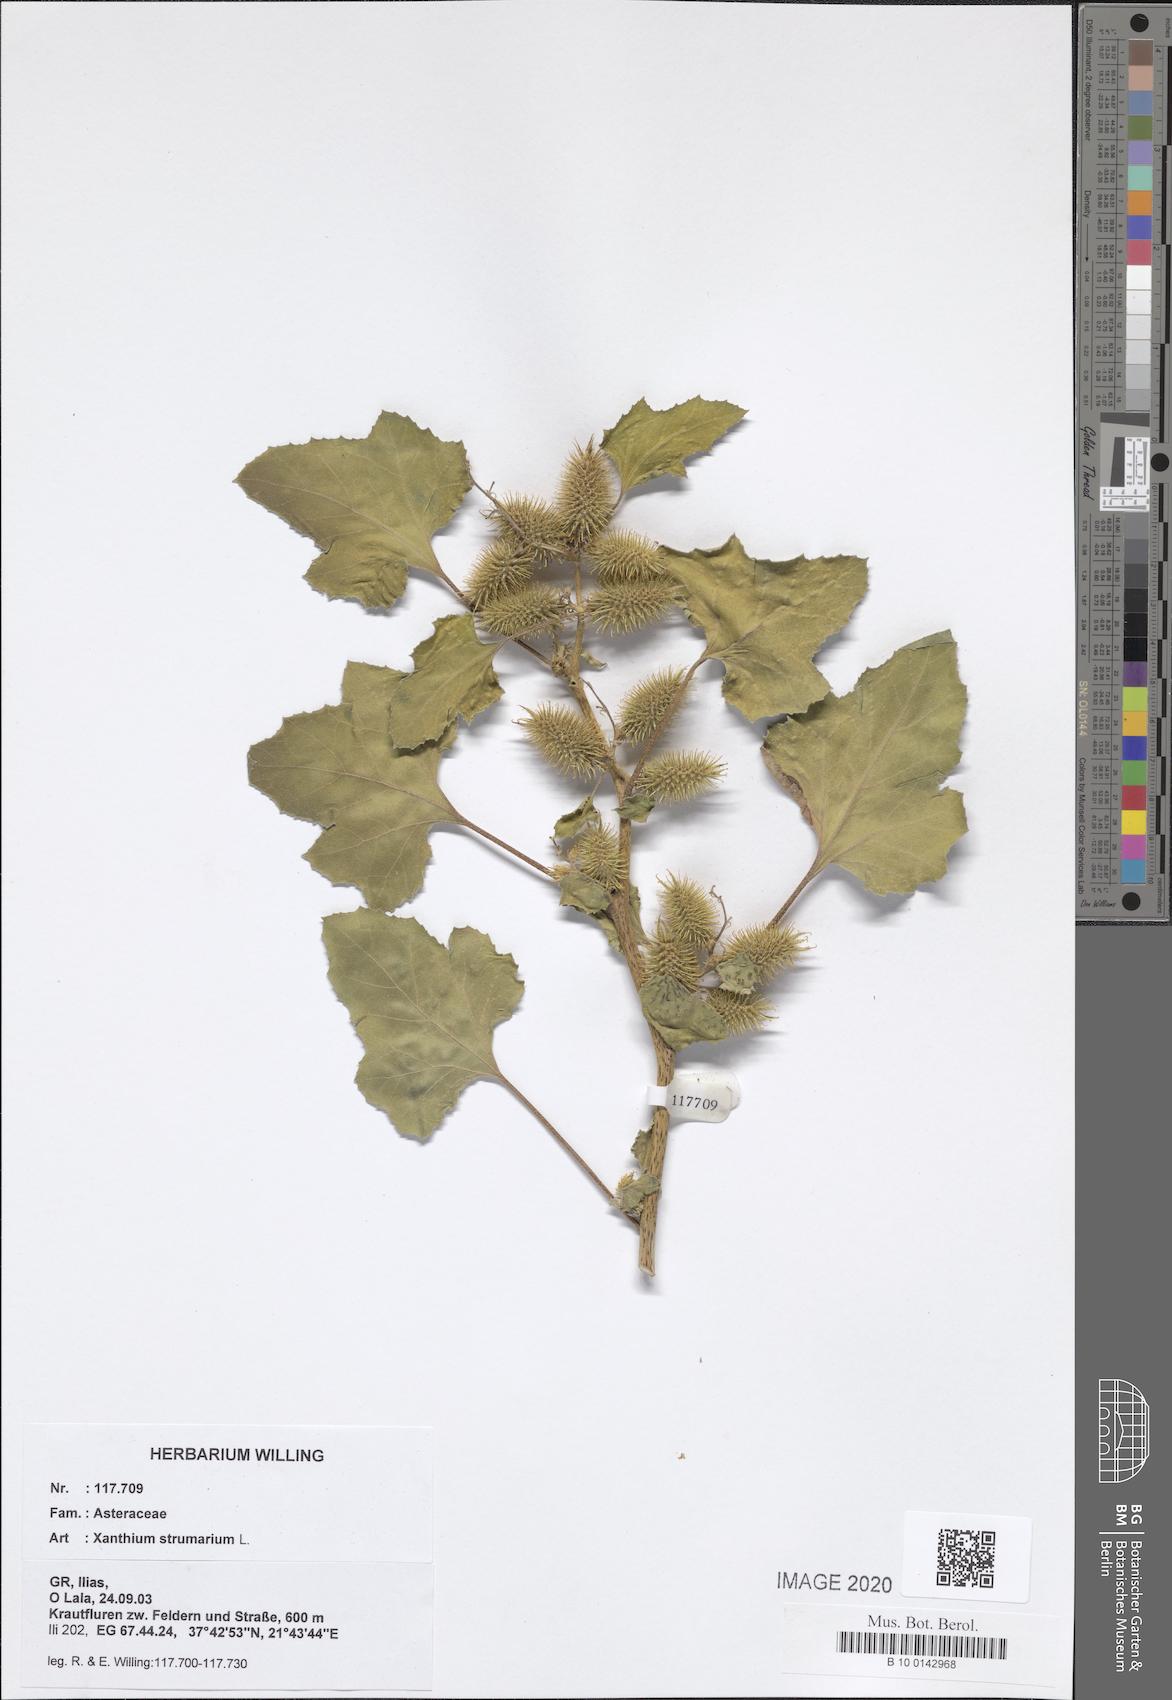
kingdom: Plantae
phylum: Tracheophyta
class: Magnoliopsida
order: Asterales
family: Asteraceae
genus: Xanthium
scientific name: Xanthium strumarium
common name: Rough cocklebur
